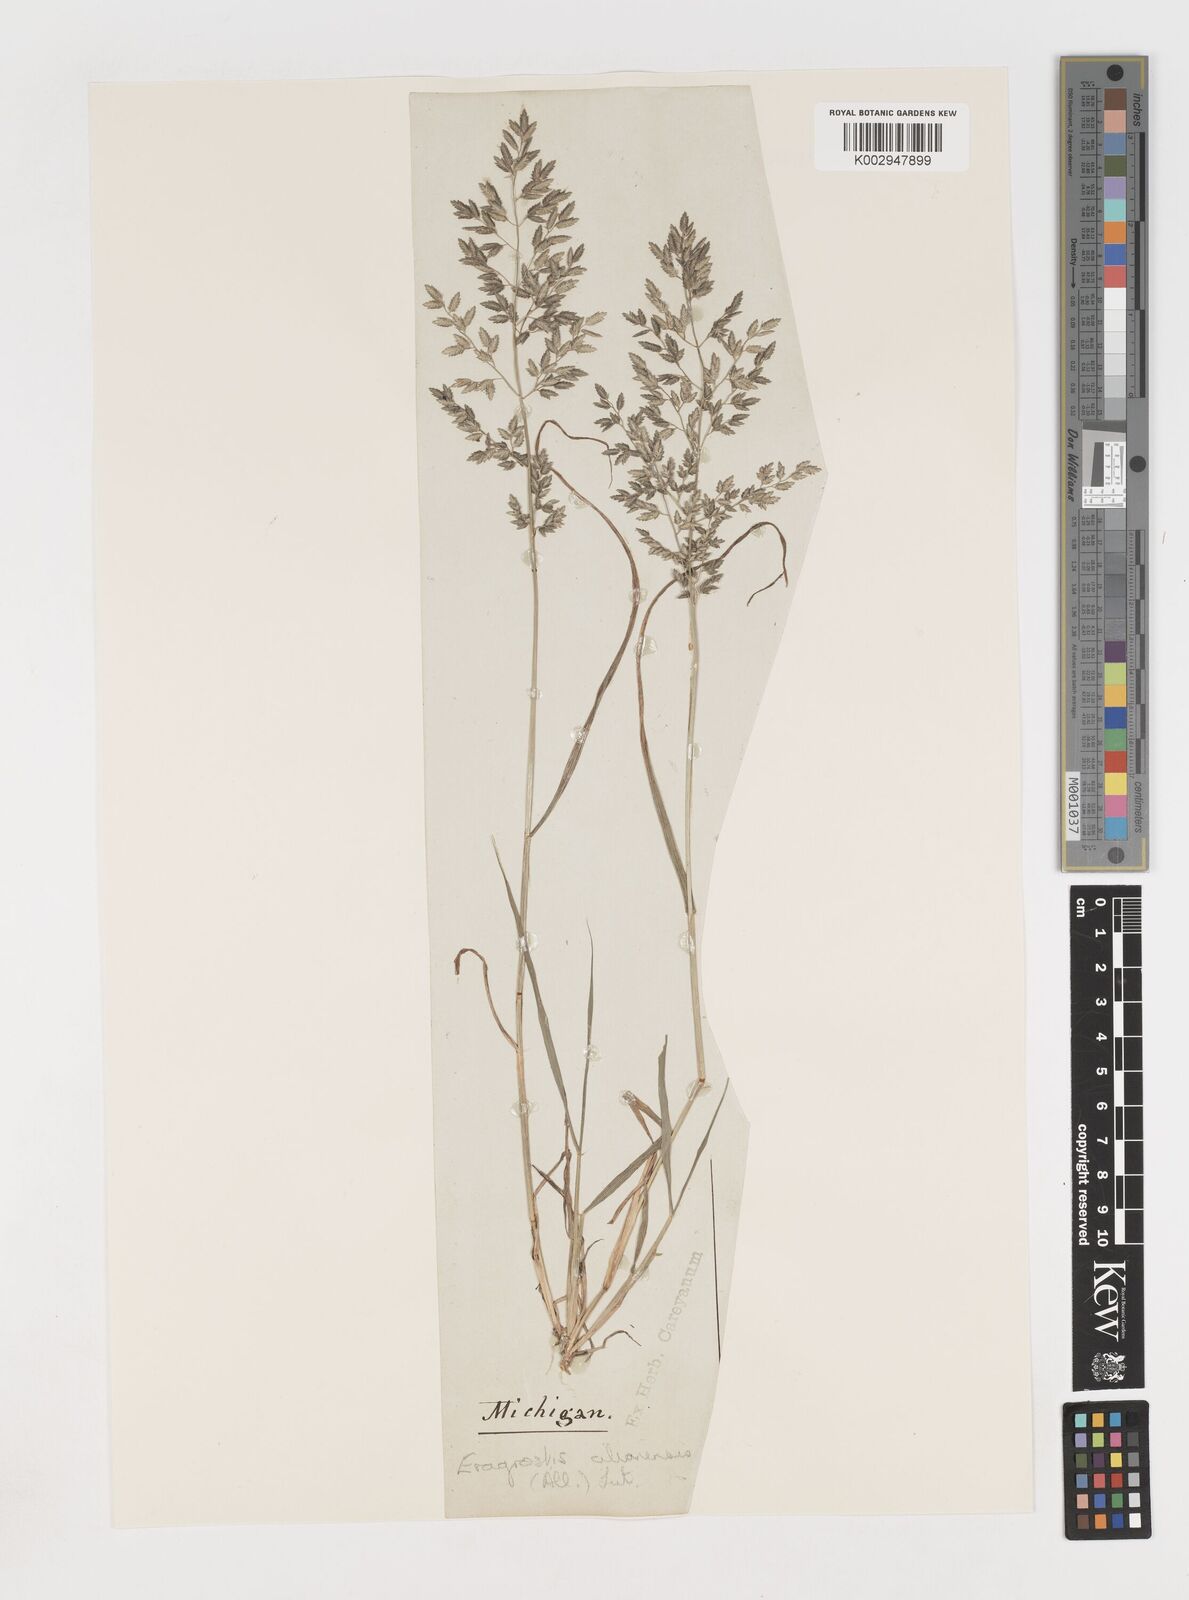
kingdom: Plantae
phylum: Tracheophyta
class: Liliopsida
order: Poales
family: Poaceae
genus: Eragrostis
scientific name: Eragrostis cilianensis
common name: Stinkgrass
